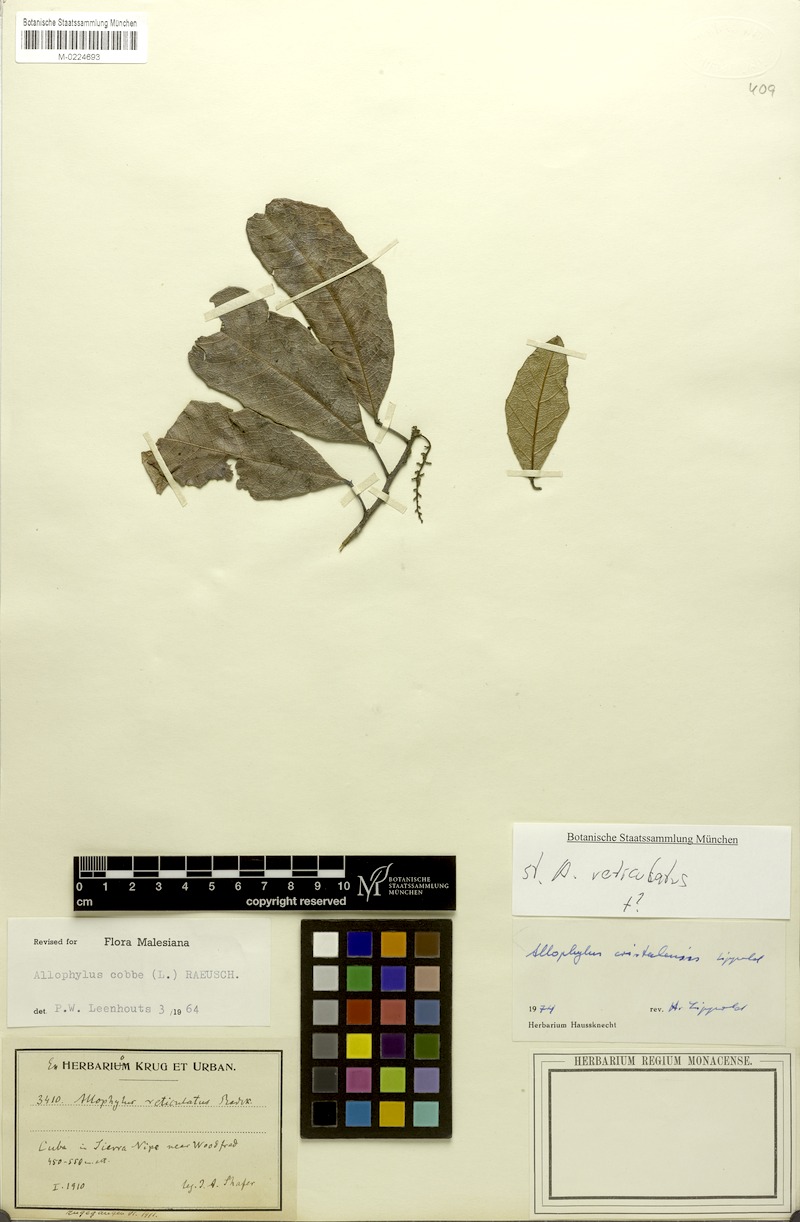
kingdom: Plantae
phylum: Tracheophyta
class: Magnoliopsida
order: Sapindales
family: Sapindaceae
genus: Allophylus
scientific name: Allophylus reticulatus
